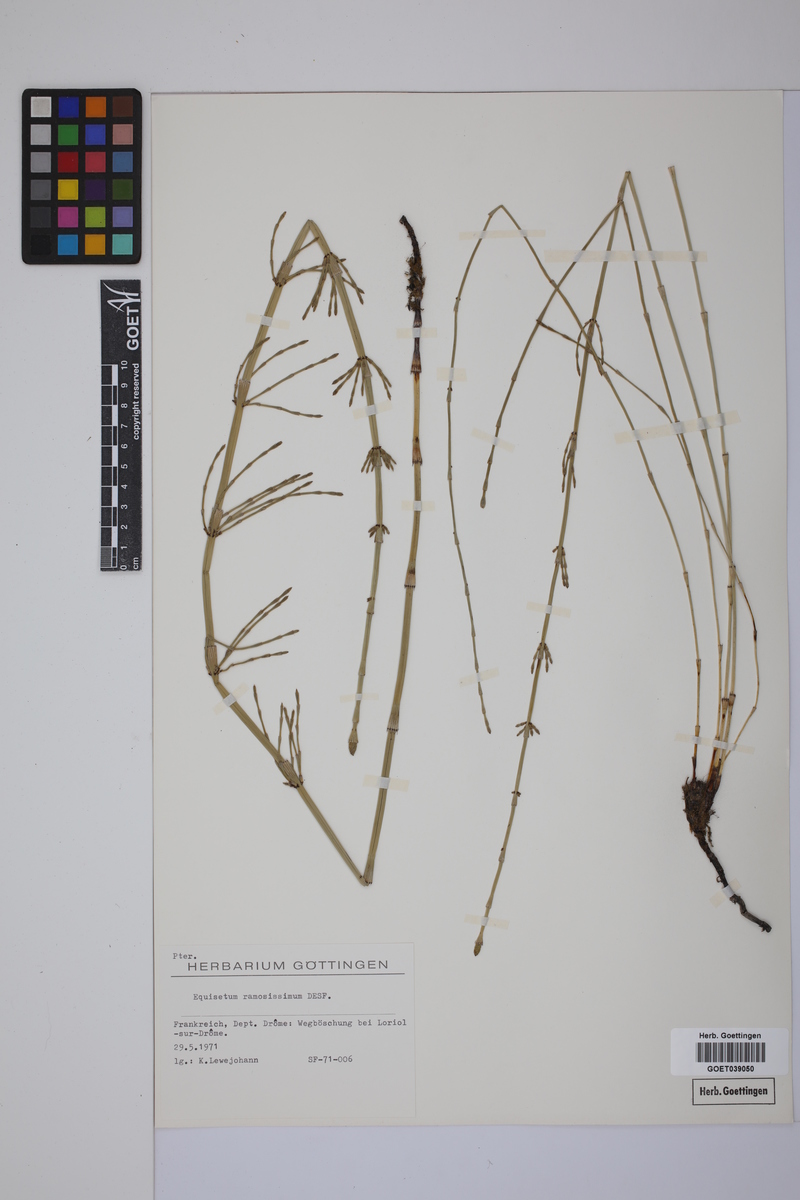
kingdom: Plantae
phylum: Tracheophyta
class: Polypodiopsida
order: Equisetales
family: Equisetaceae
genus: Equisetum
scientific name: Equisetum giganteum
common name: Giant horsetail
